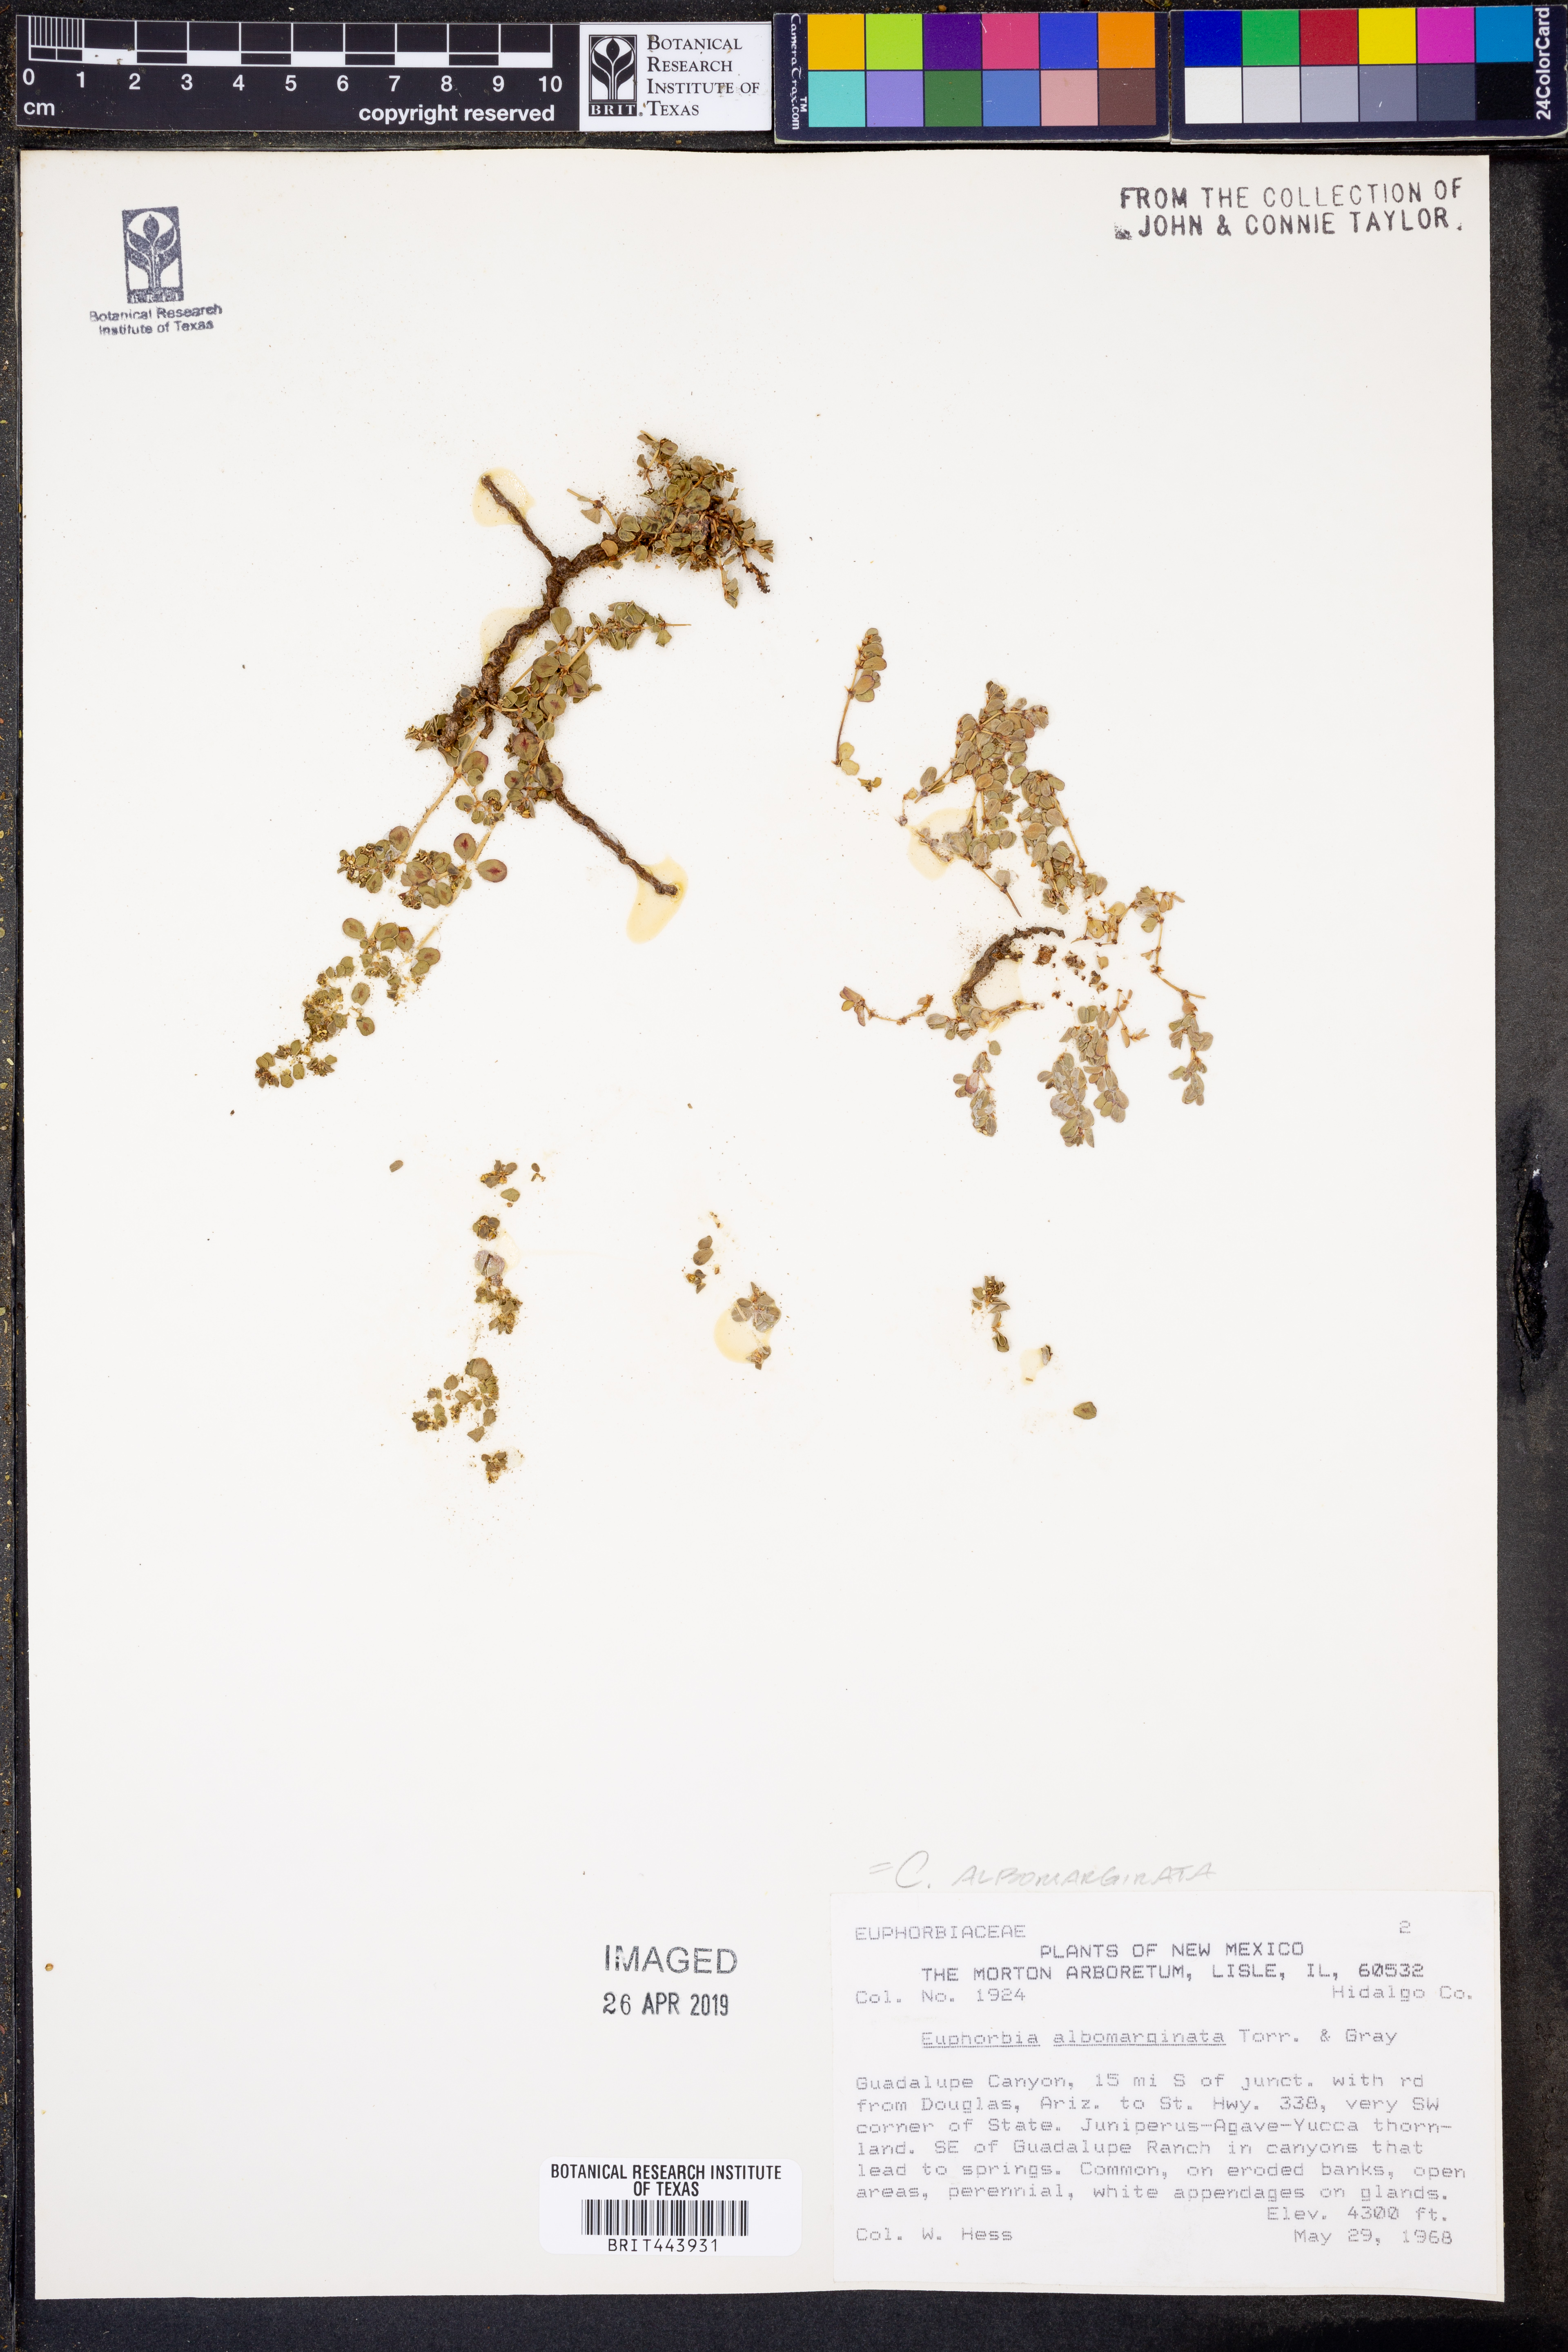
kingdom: Plantae
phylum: Tracheophyta
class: Magnoliopsida
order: Malpighiales
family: Euphorbiaceae
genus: Euphorbia
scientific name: Euphorbia albomarginata
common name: Whitemargin sandmat
